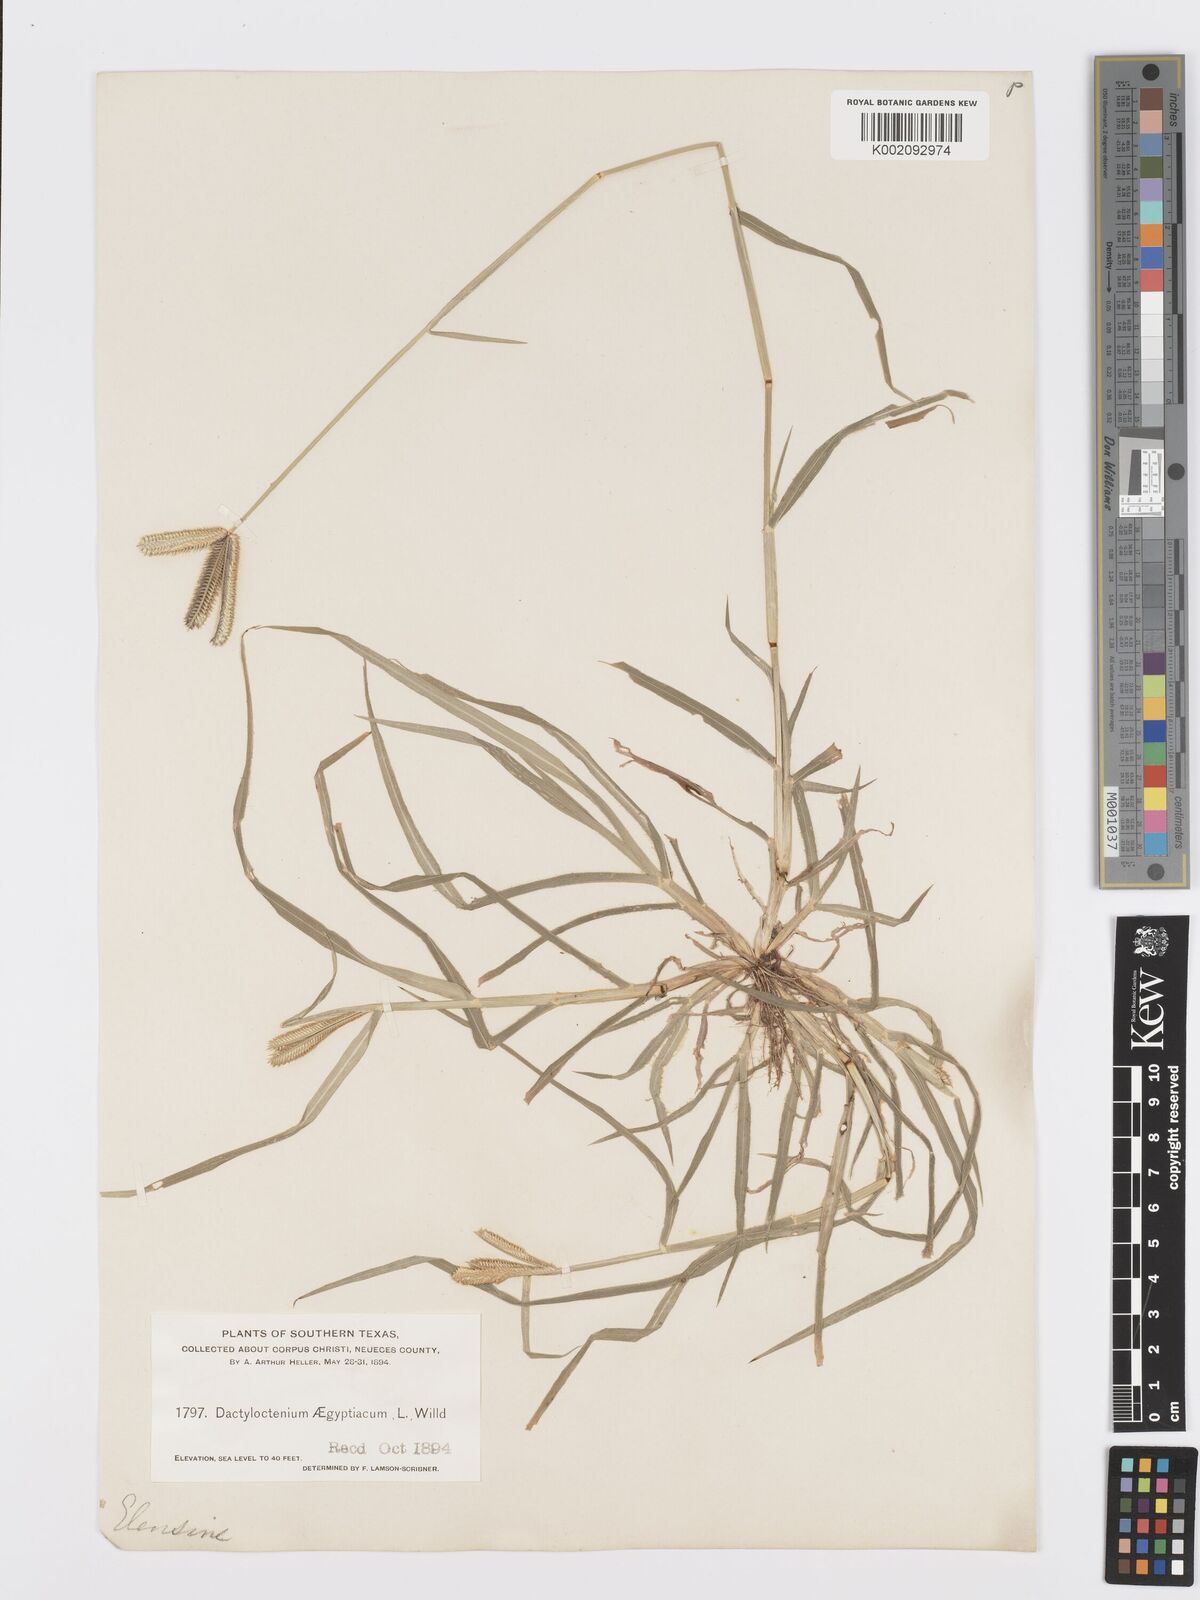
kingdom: Plantae
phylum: Tracheophyta
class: Liliopsida
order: Poales
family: Poaceae
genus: Dactyloctenium
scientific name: Dactyloctenium aegyptium
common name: Egyptian grass
